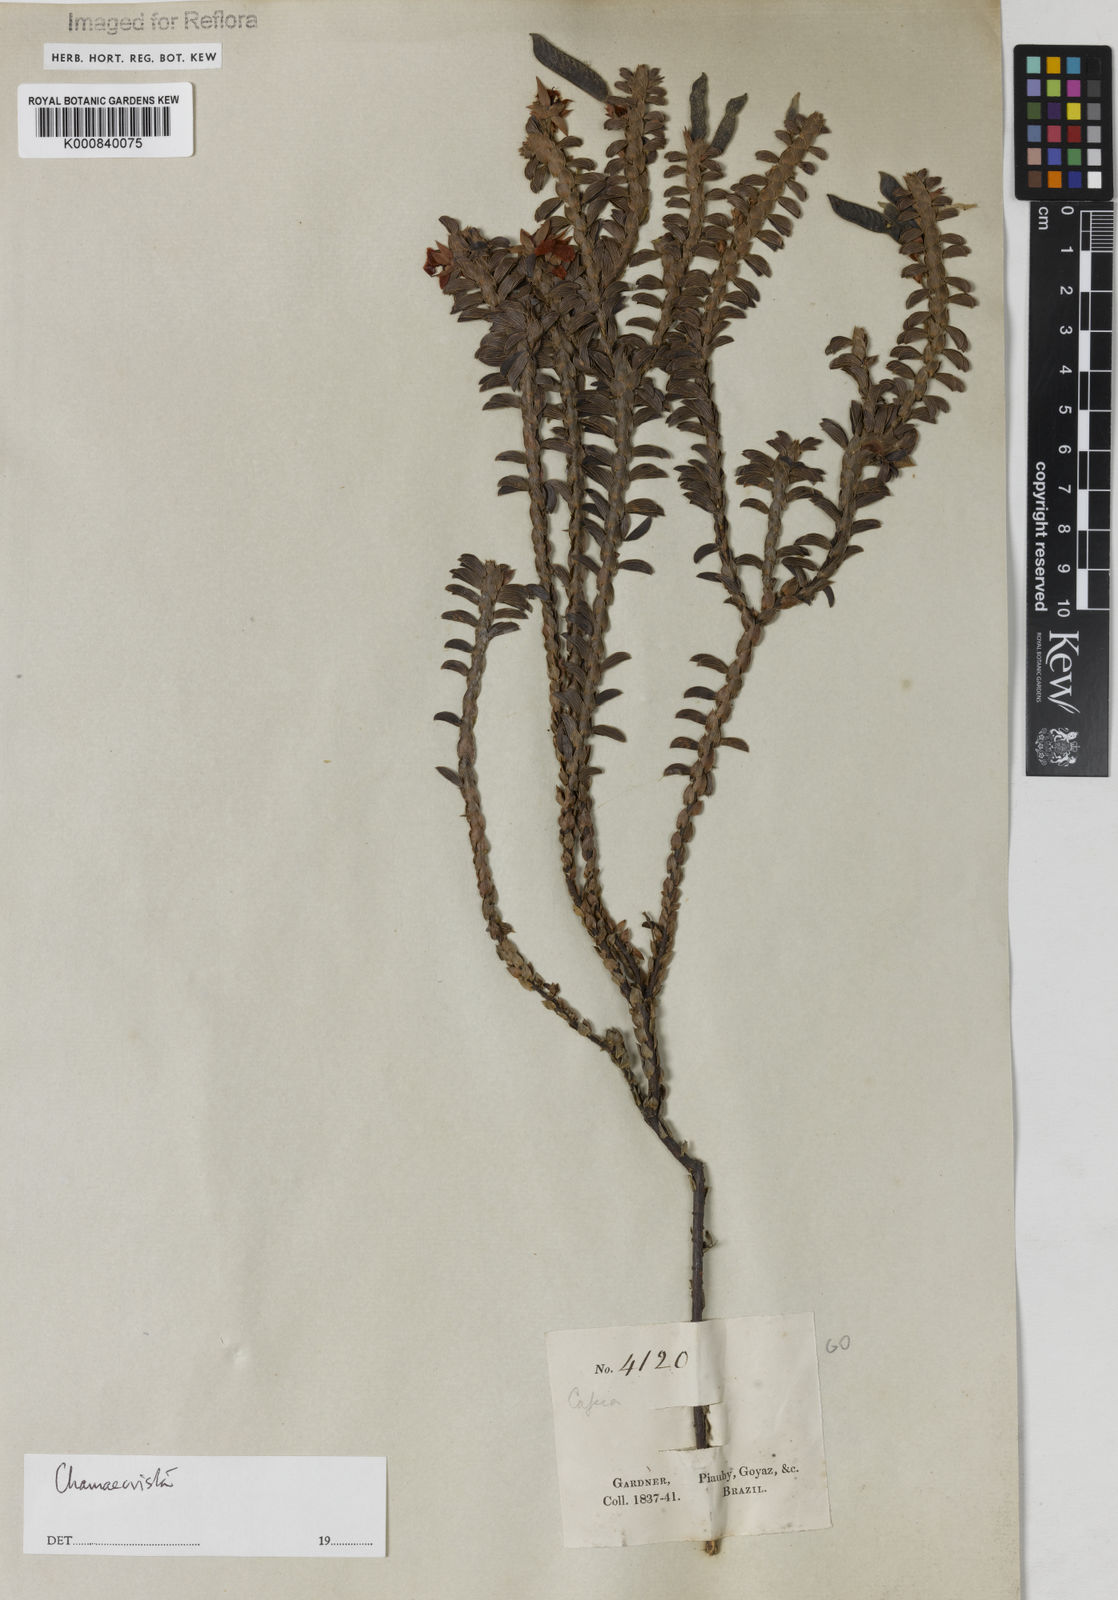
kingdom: Plantae
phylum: Tracheophyta
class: Magnoliopsida
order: Fabales
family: Fabaceae
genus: Chamaecrista
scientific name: Chamaecrista ramosa
